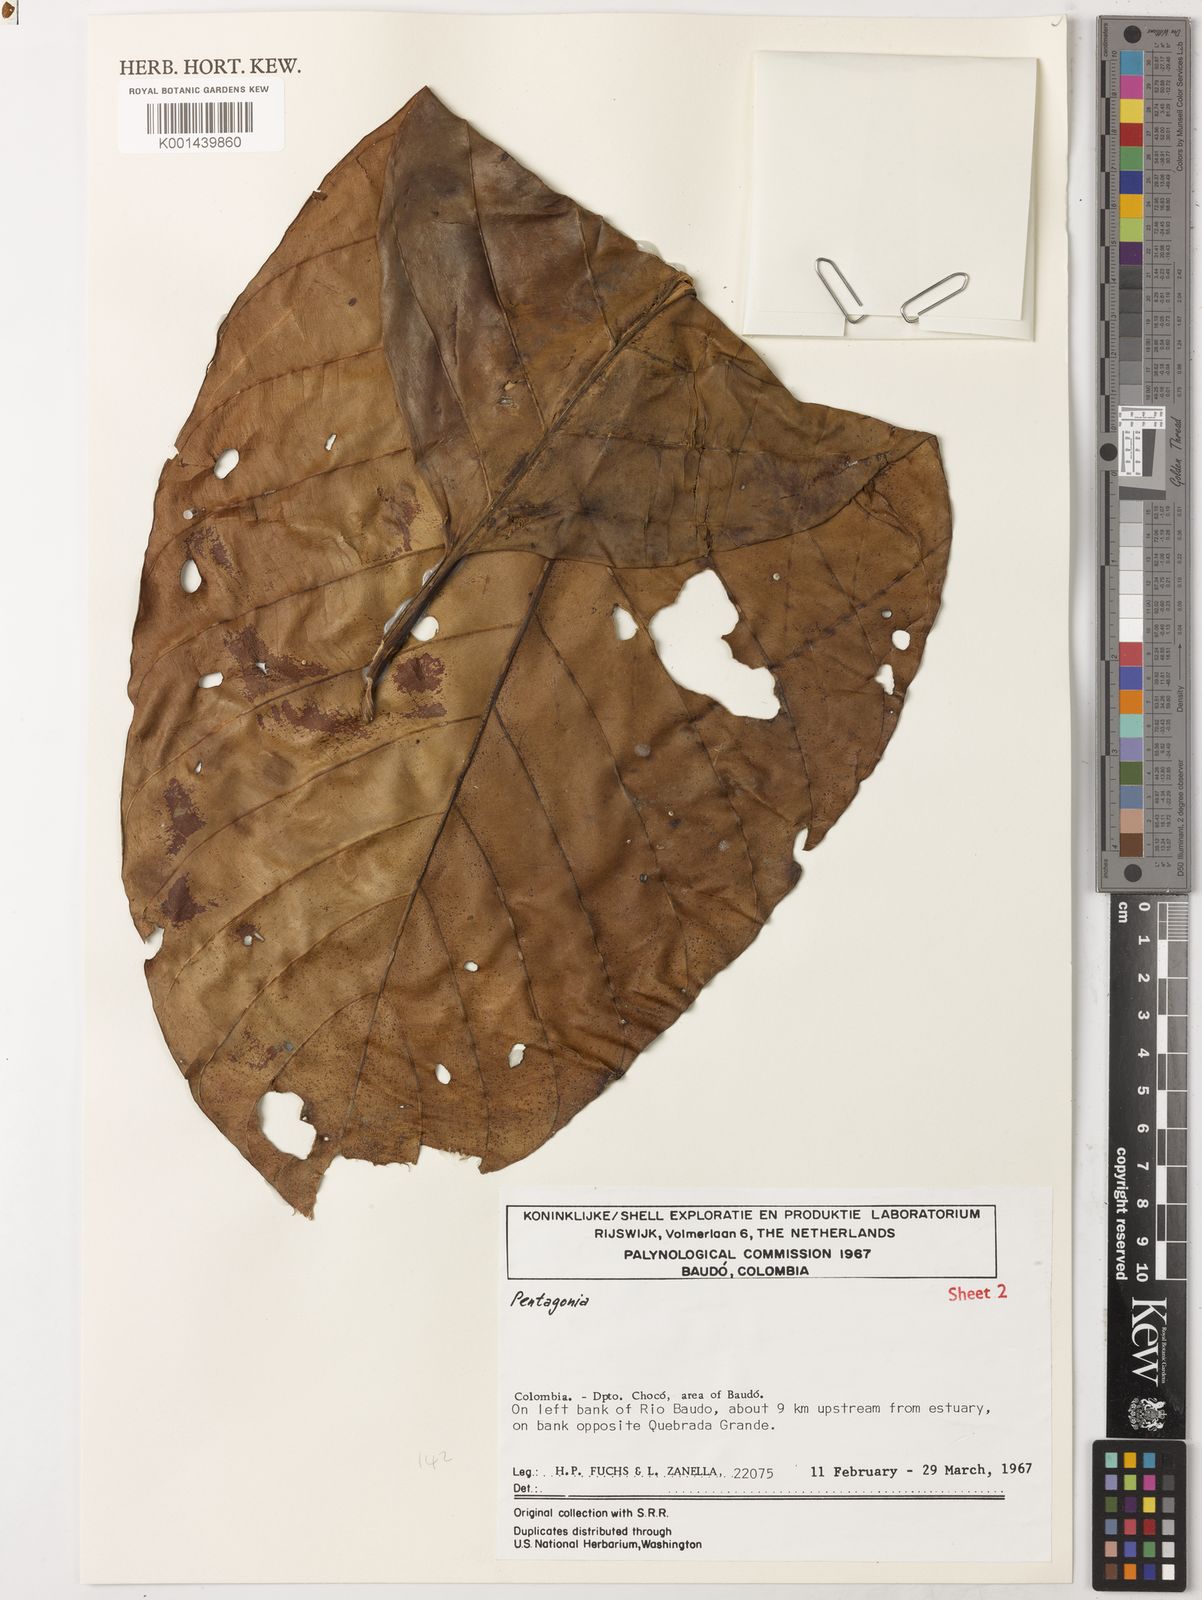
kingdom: Plantae
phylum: Tracheophyta
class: Magnoliopsida
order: Gentianales
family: Rubiaceae
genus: Pentagonia
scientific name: Pentagonia macrophylla
